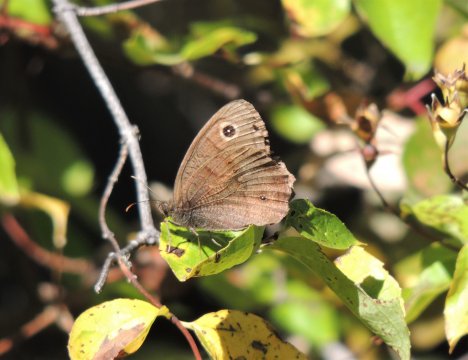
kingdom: Animalia
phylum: Arthropoda
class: Insecta
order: Lepidoptera
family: Nymphalidae
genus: Cercyonis
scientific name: Cercyonis pegala
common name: Common Wood-Nymph
